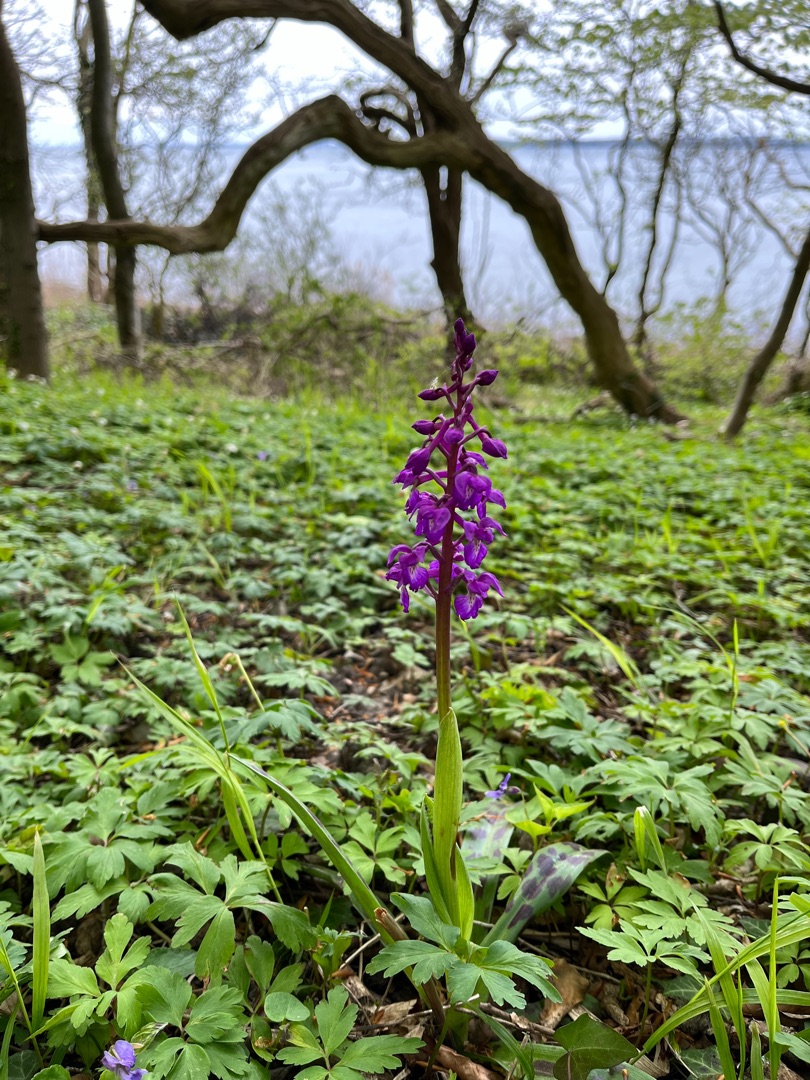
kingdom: Plantae
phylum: Tracheophyta
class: Liliopsida
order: Asparagales
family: Orchidaceae
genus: Orchis
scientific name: Orchis mascula
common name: Tyndakset gøgeurt
